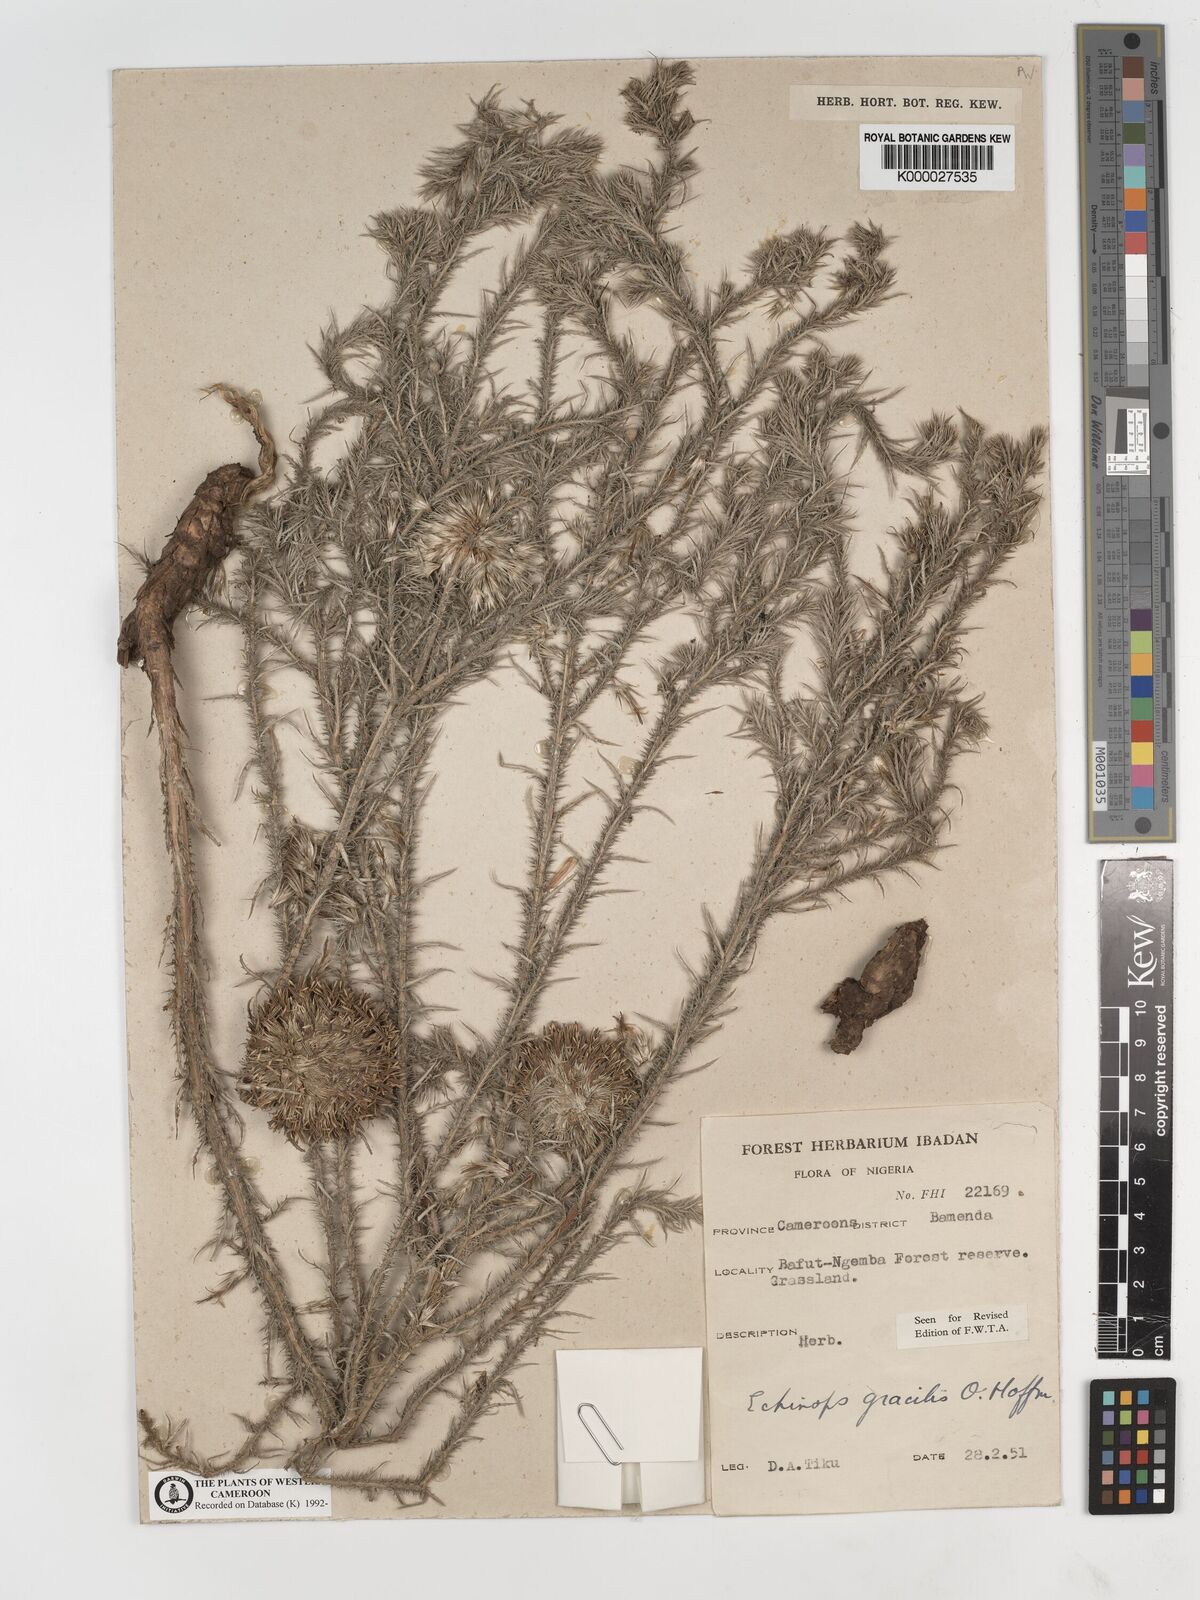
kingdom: Plantae
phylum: Tracheophyta
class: Magnoliopsida
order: Asterales
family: Asteraceae
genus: Echinops
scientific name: Echinops gracilis
